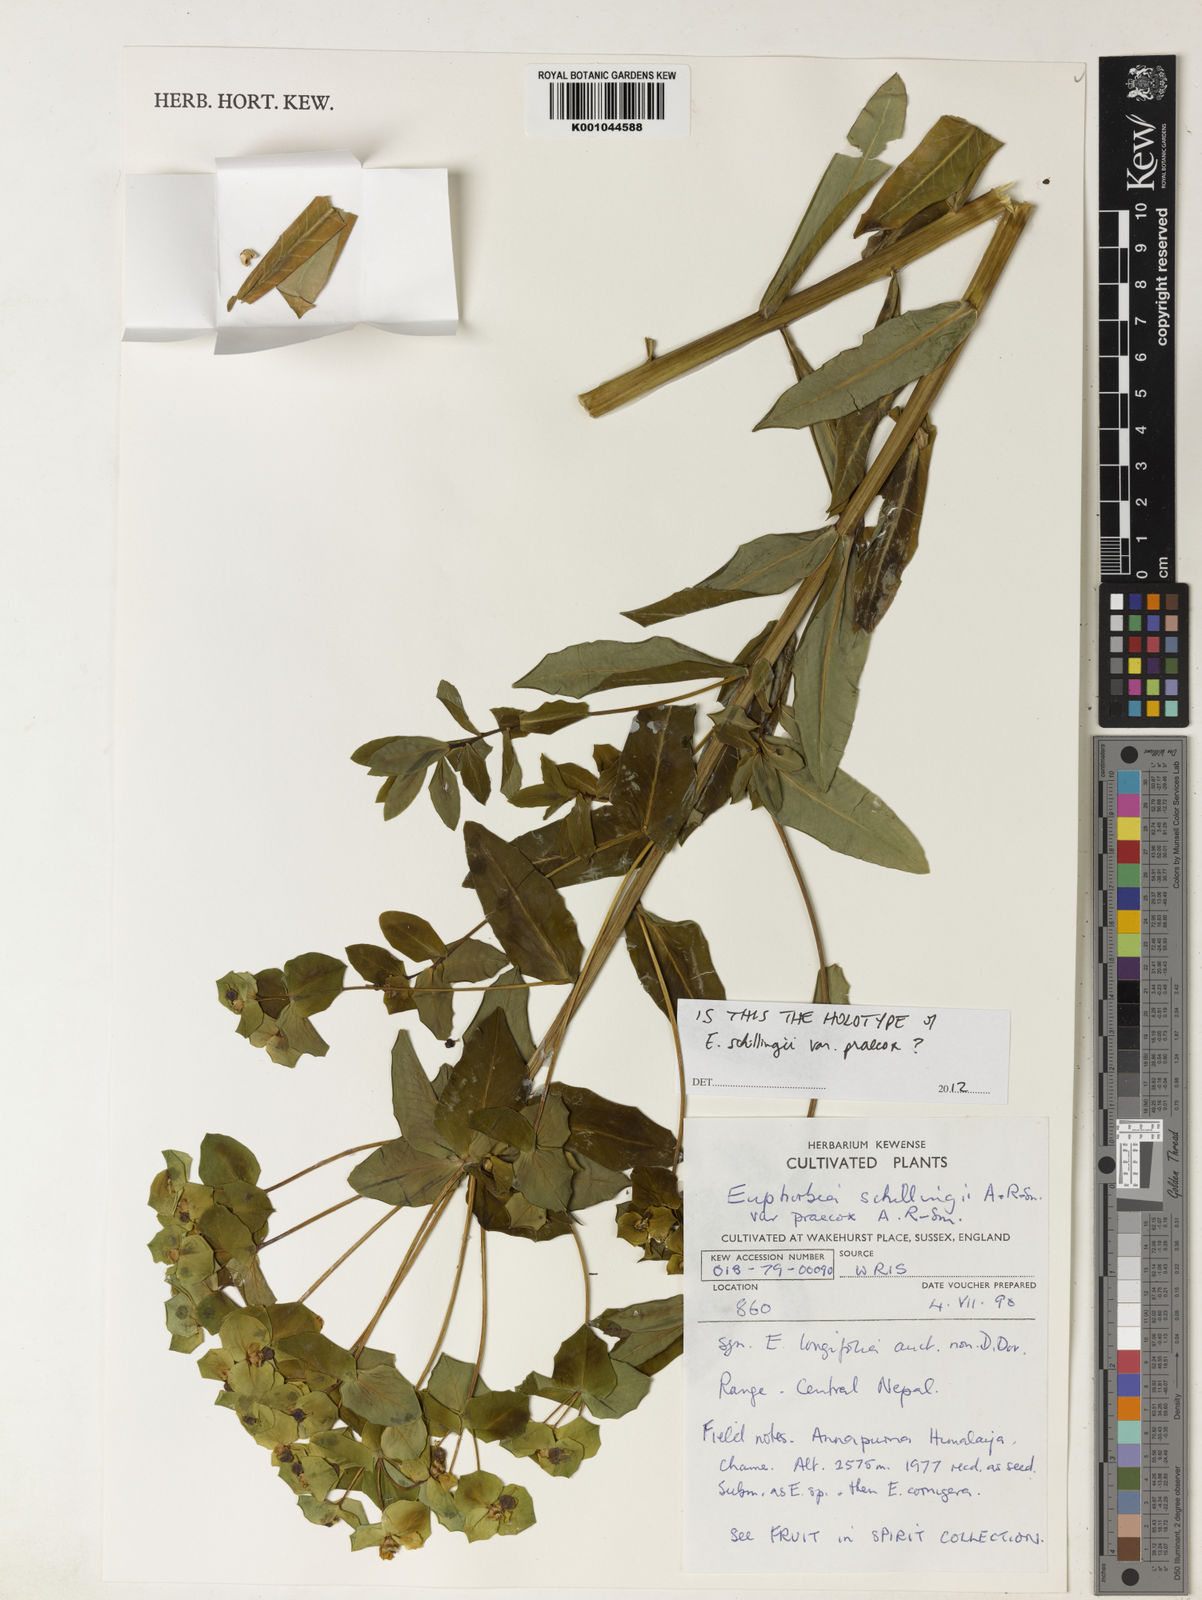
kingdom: Plantae
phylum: Tracheophyta
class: Magnoliopsida
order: Malpighiales
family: Euphorbiaceae
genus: Euphorbia
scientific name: Euphorbia pseudosikkimensis
